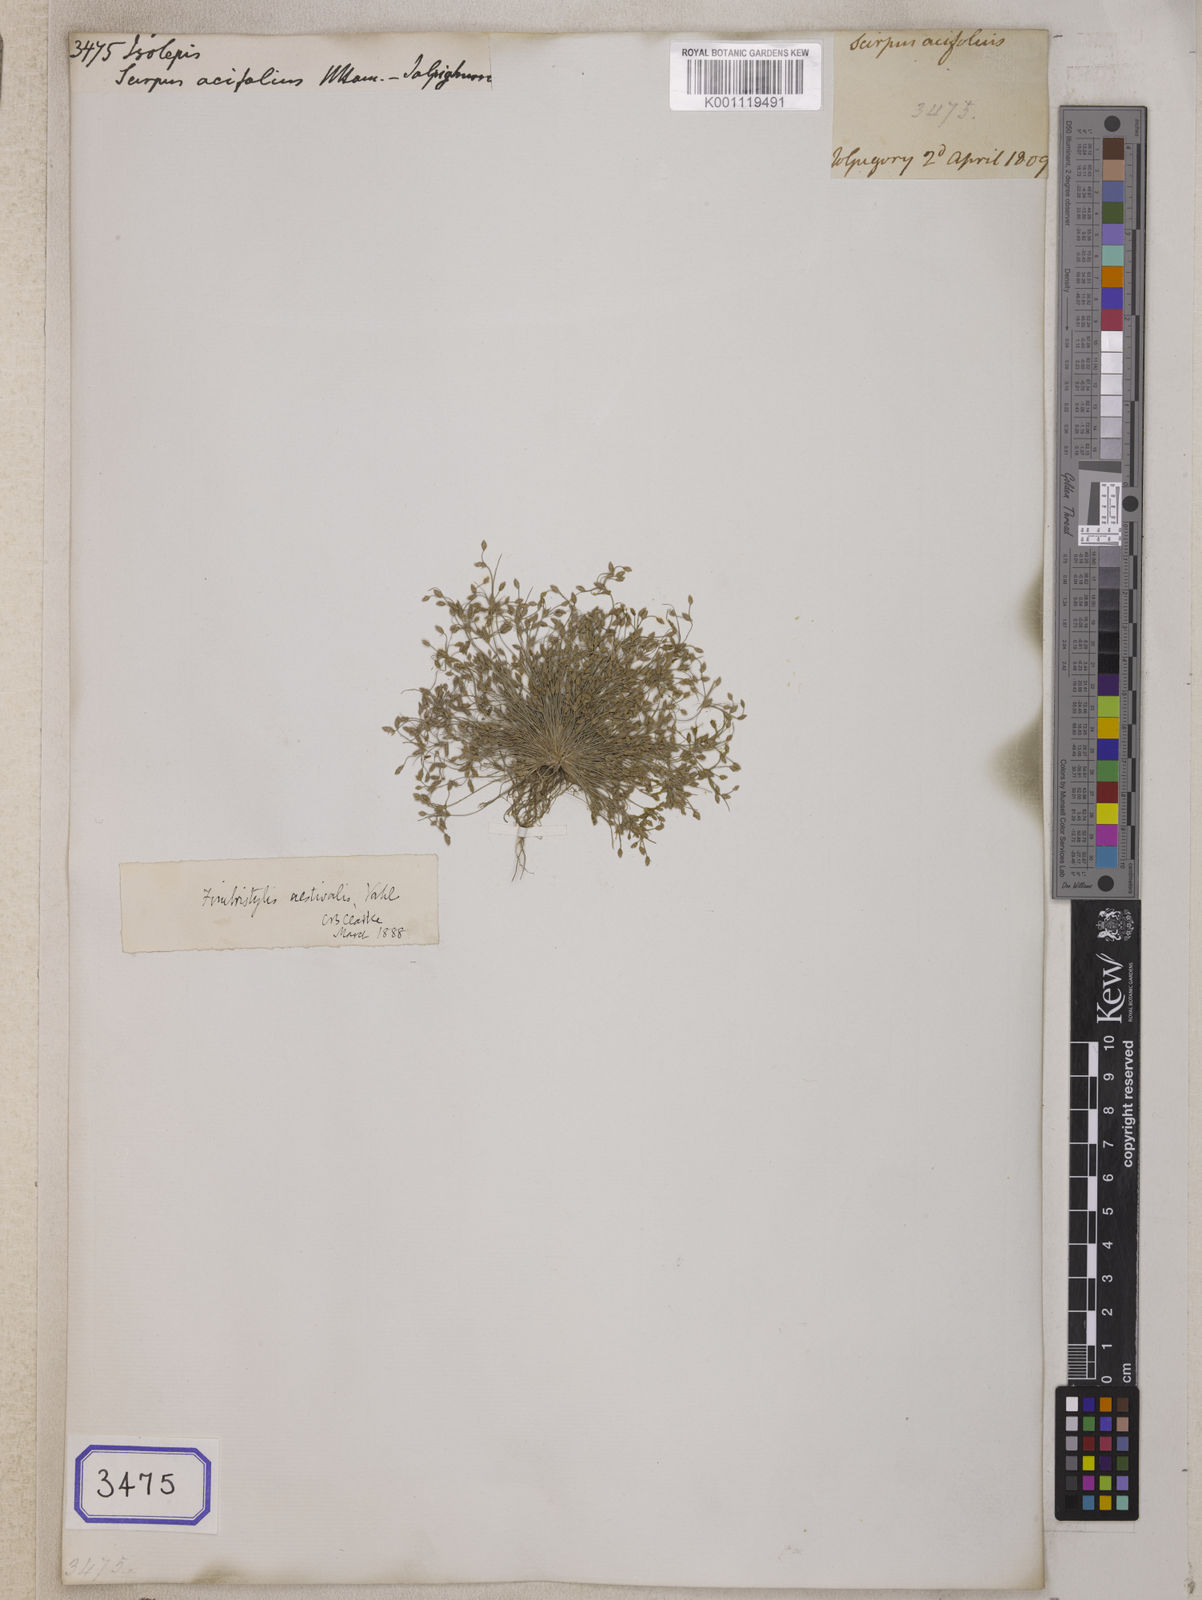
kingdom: Plantae
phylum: Tracheophyta
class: Liliopsida
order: Poales
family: Cyperaceae
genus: Isolepis
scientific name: Isolepis
